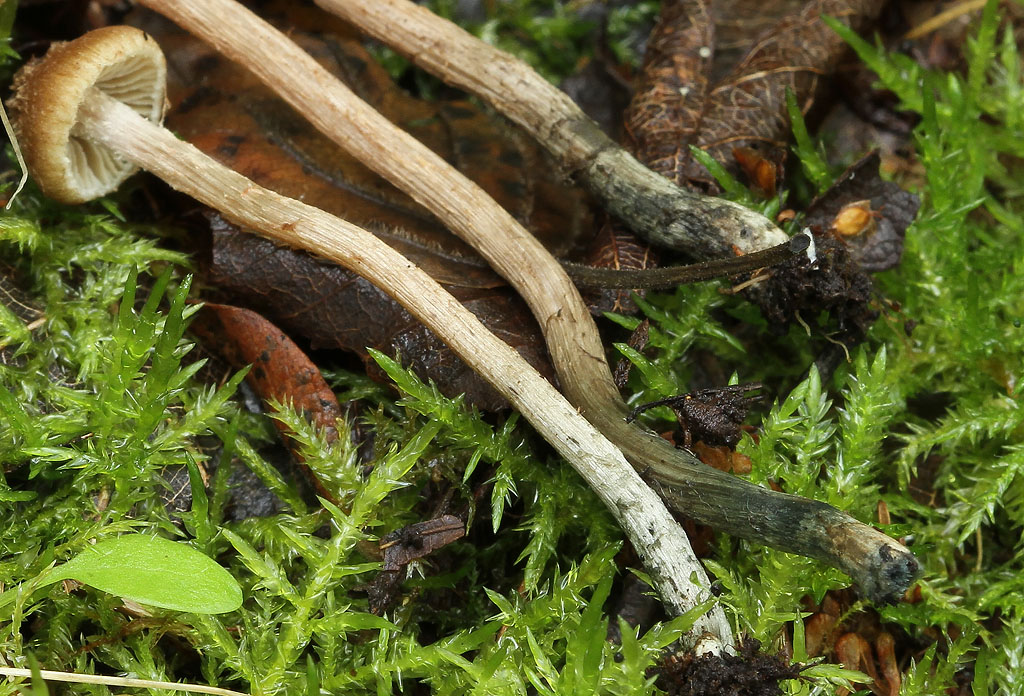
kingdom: Fungi
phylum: Basidiomycota
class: Agaricomycetes
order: Agaricales
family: Inocybaceae
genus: Inosperma
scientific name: Inosperma calamistratum
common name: grønfodet trævlhat
